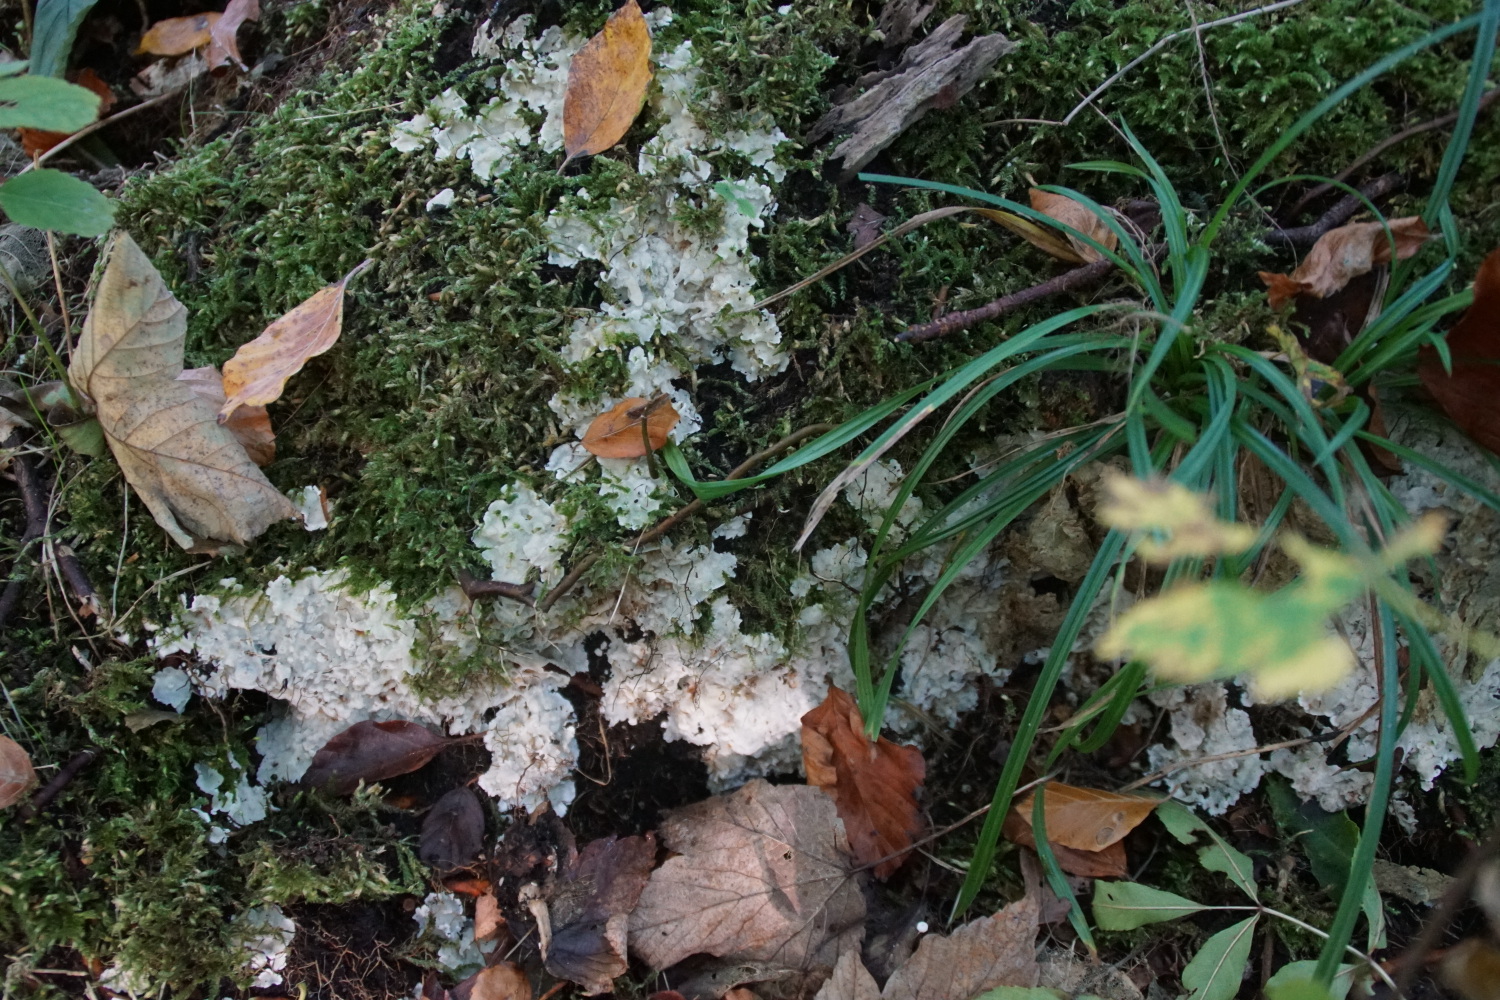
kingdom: Fungi
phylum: Basidiomycota
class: Agaricomycetes
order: Polyporales
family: Meruliaceae
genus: Physisporinus
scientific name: Physisporinus vitreus
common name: mastesvamp
